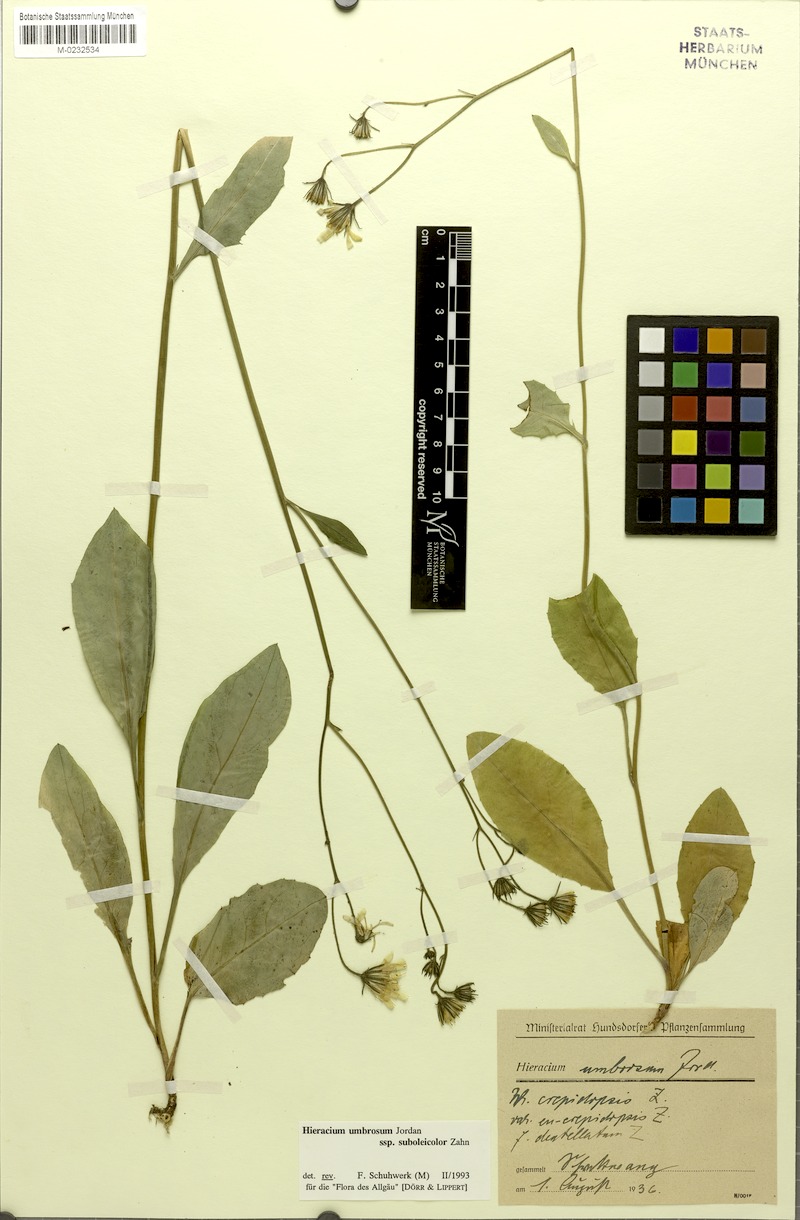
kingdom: Plantae
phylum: Tracheophyta
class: Magnoliopsida
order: Asterales
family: Asteraceae
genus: Hieracium
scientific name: Hieracium umbrosum
